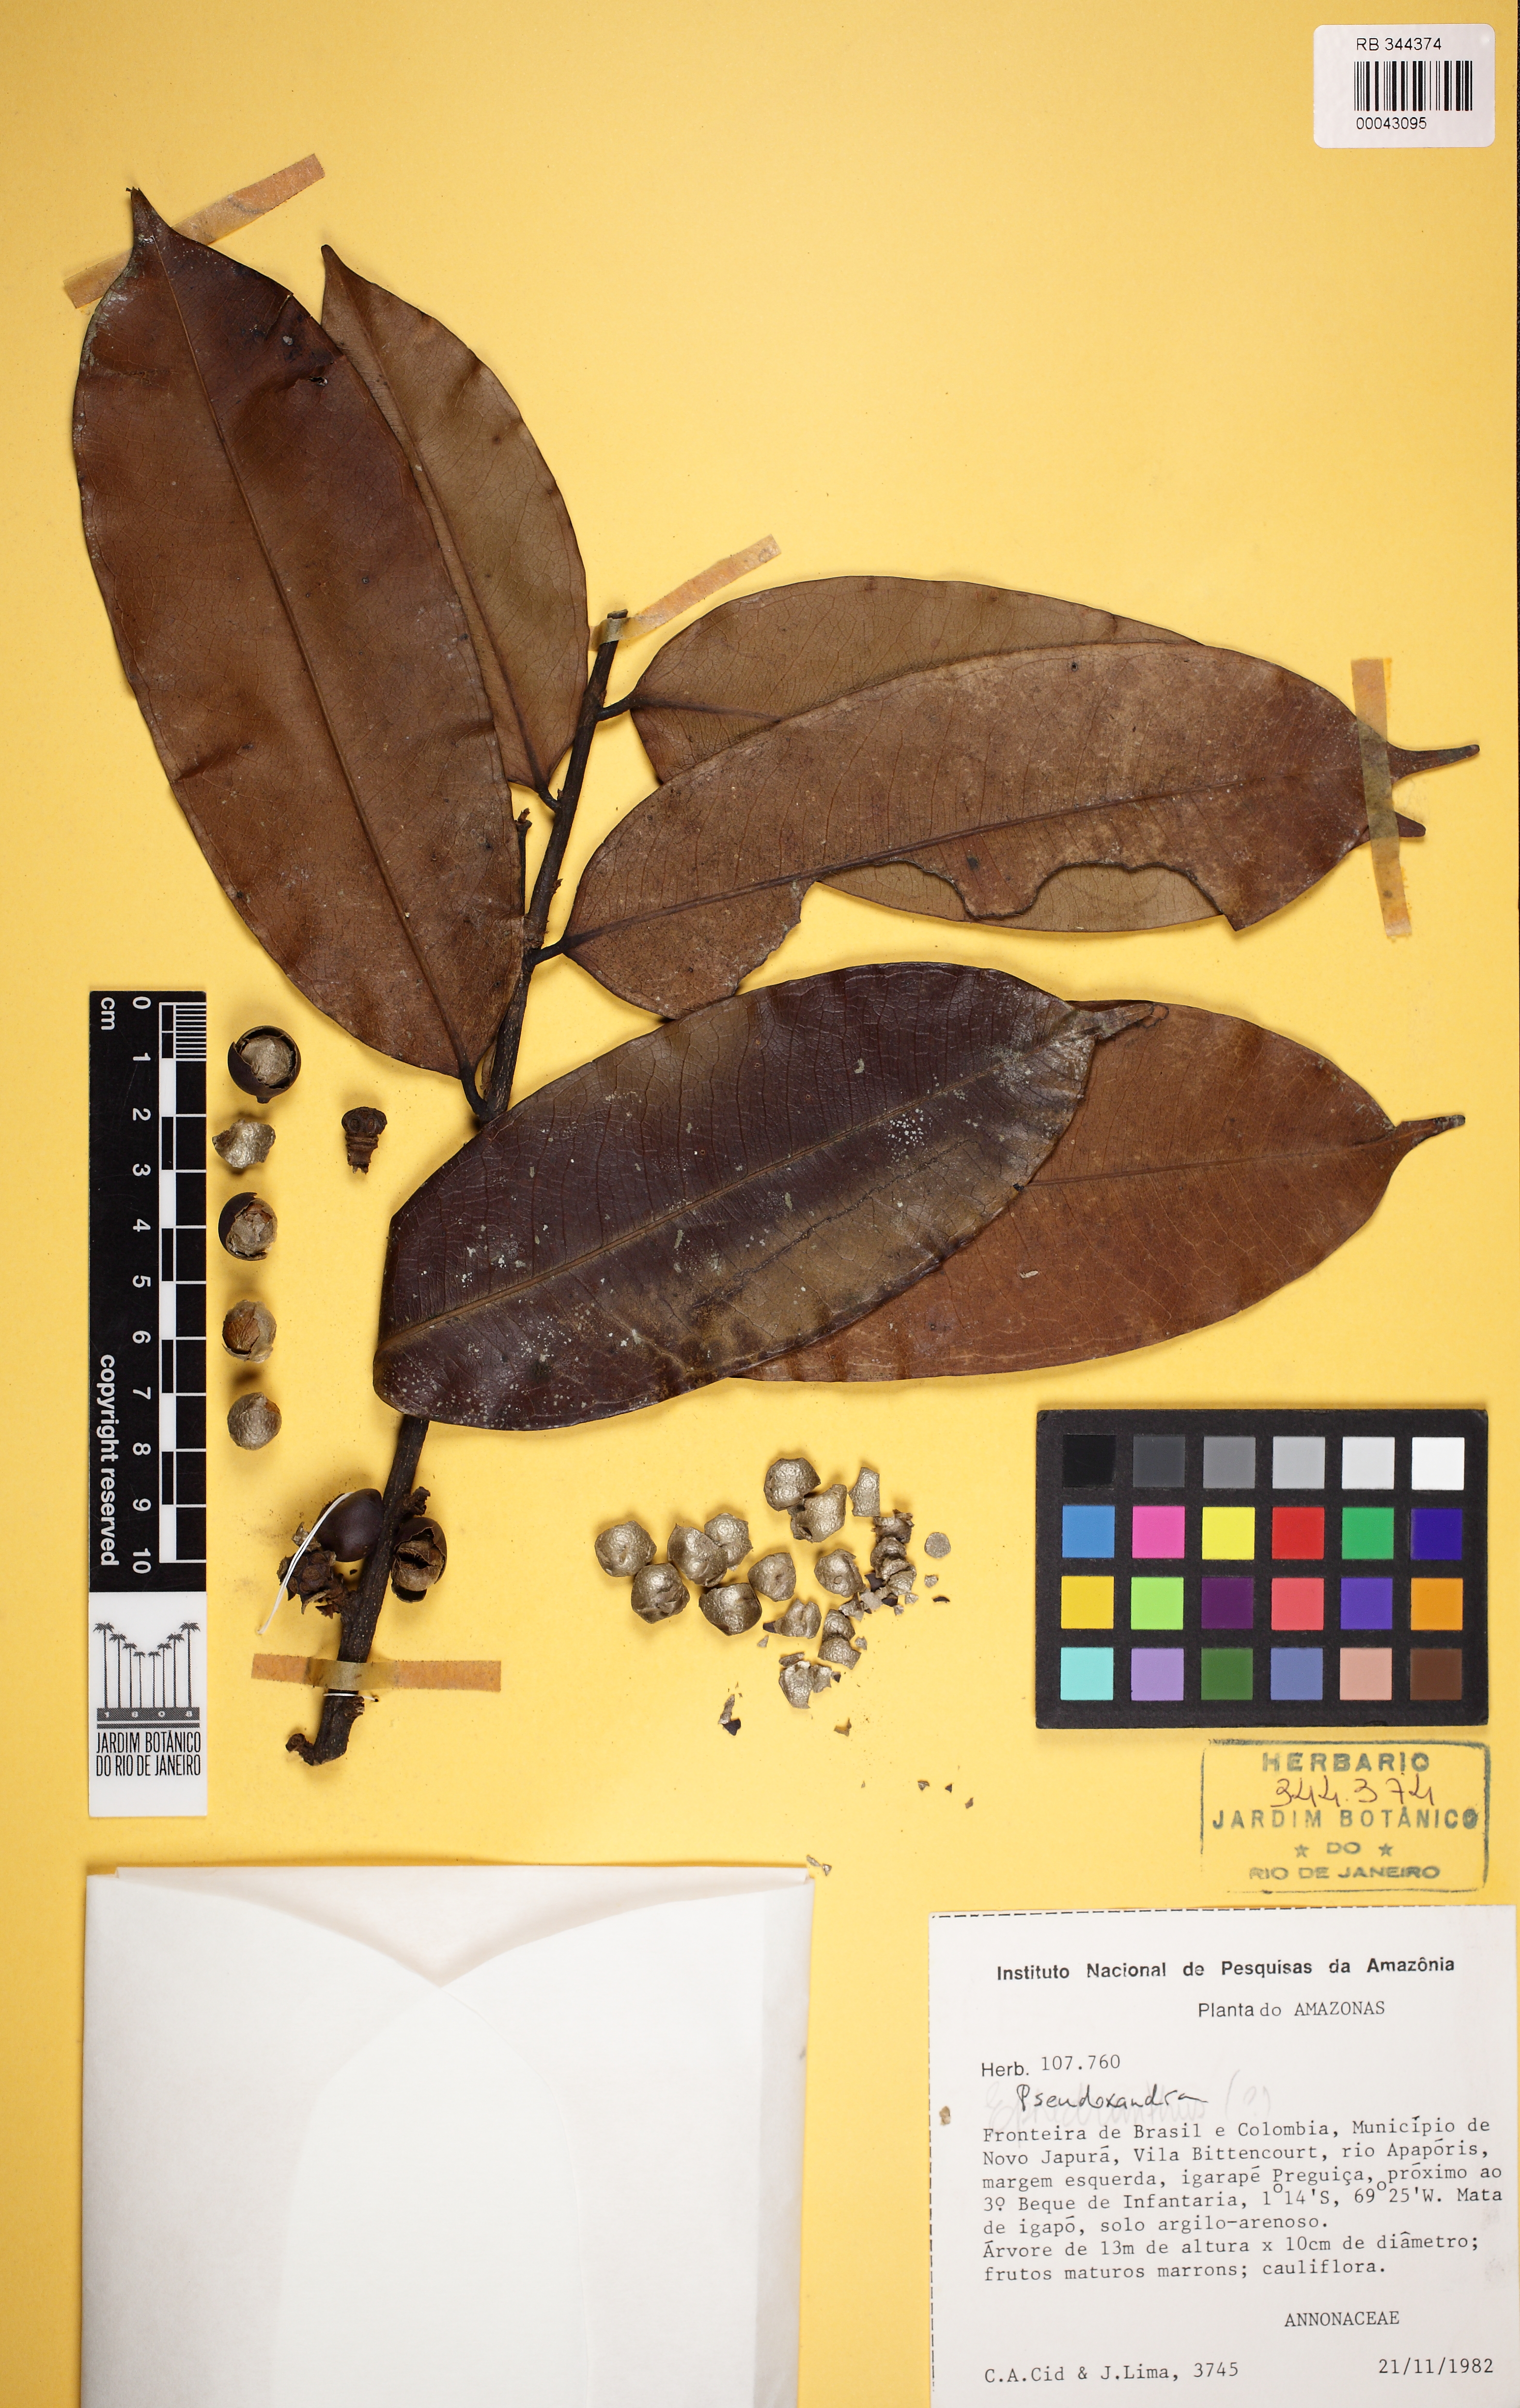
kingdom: Plantae
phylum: Tracheophyta
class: Magnoliopsida
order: Magnoliales
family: Annonaceae
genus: Pseudoxandra
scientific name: Pseudoxandra
